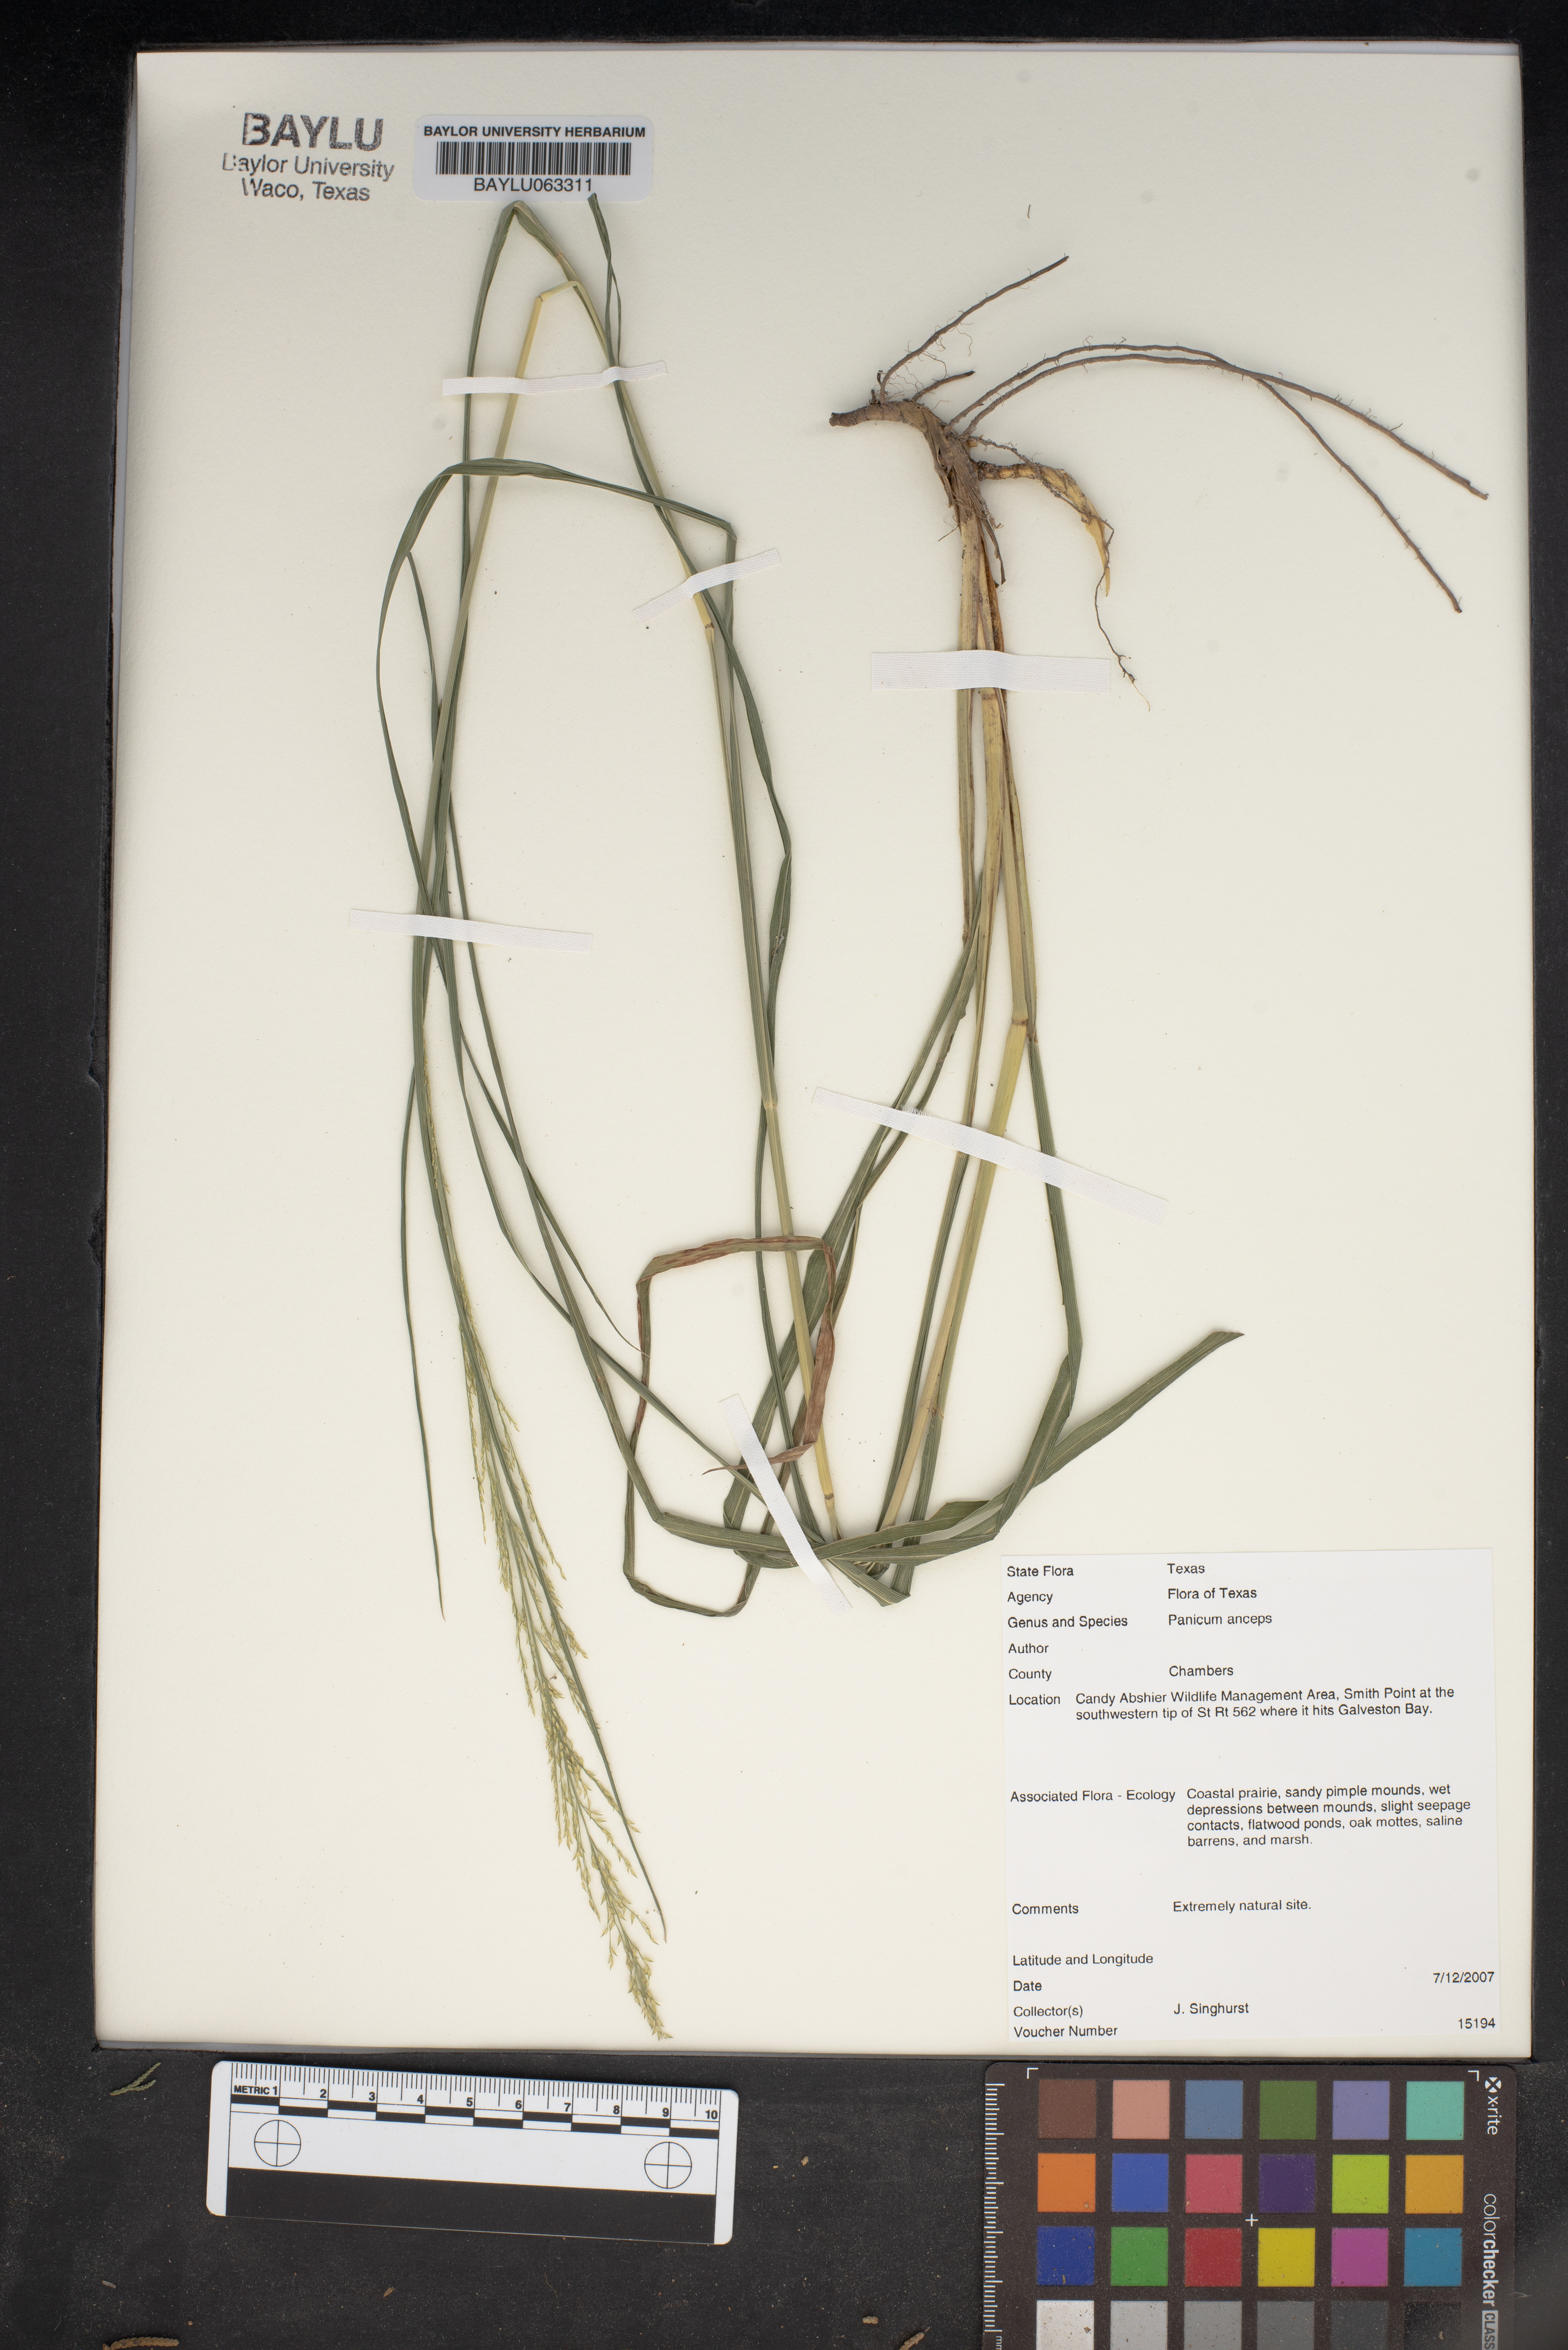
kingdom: Plantae
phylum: Tracheophyta
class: Liliopsida
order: Poales
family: Poaceae
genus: Coleataenia
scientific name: Coleataenia anceps
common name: Beaked panic grass
